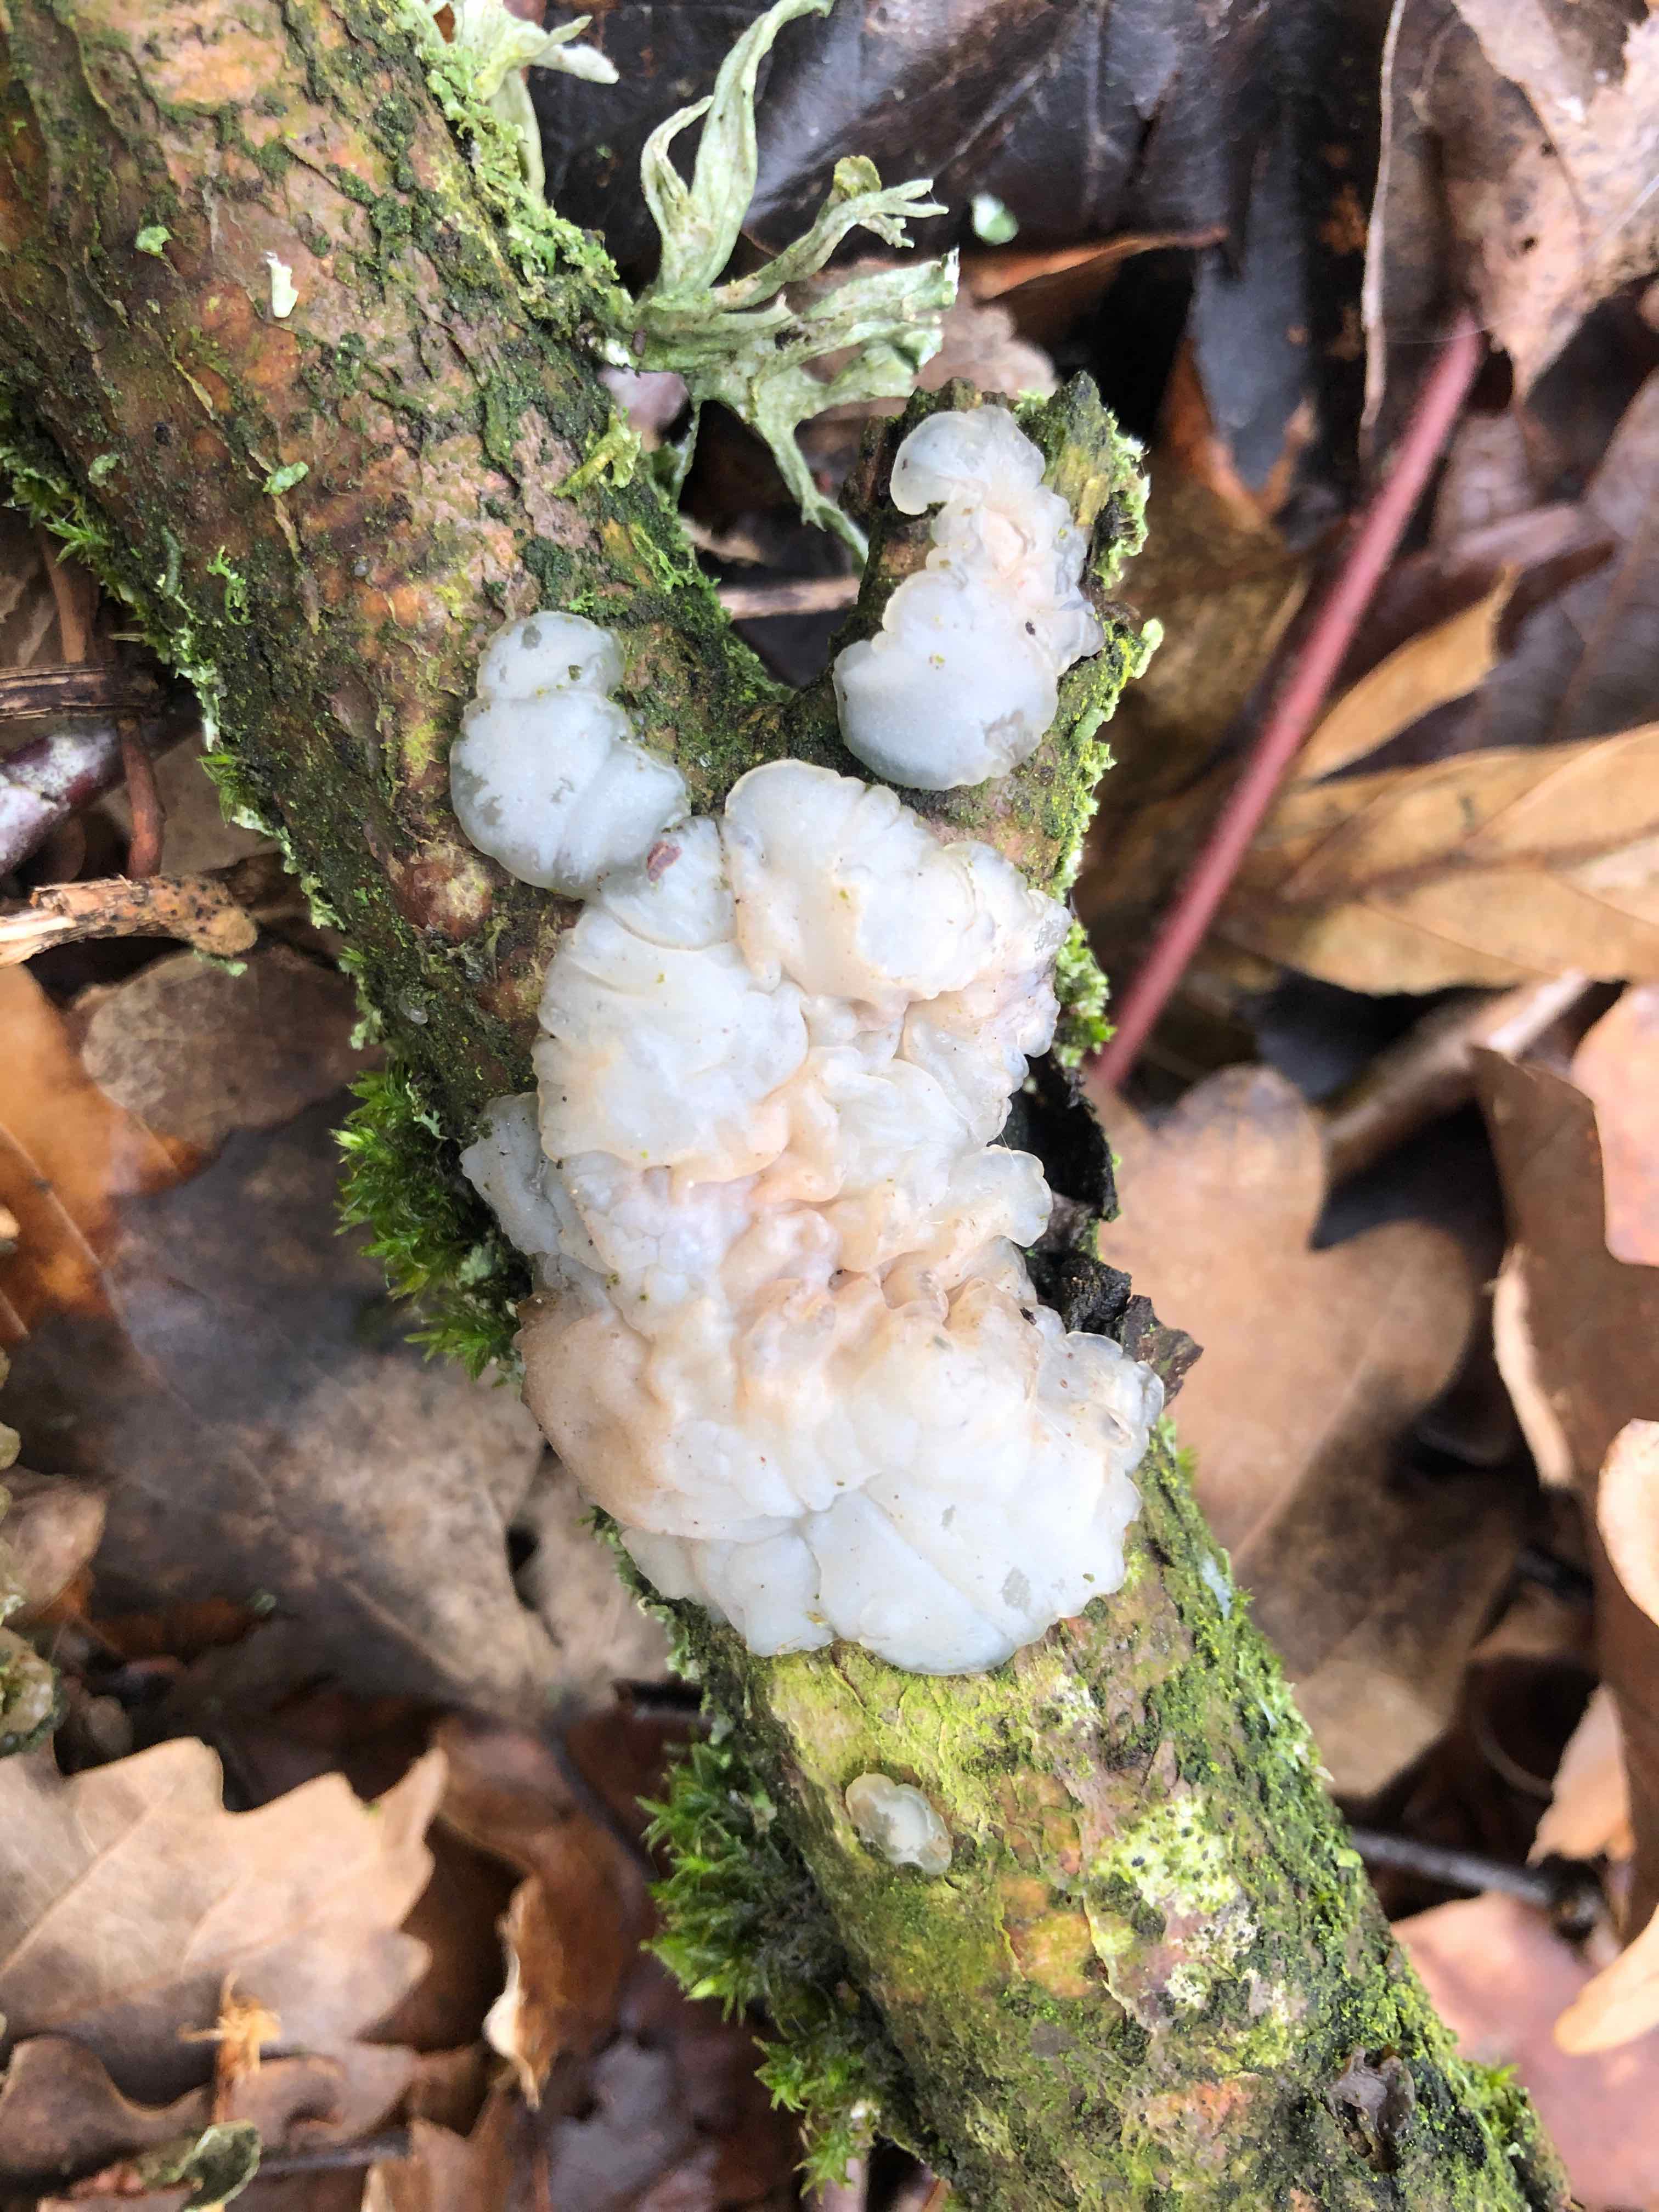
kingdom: Fungi
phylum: Basidiomycota
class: Agaricomycetes
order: Auriculariales
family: Auriculariaceae
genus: Exidia
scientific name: Exidia thuretiana
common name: hvidlig bævretop
